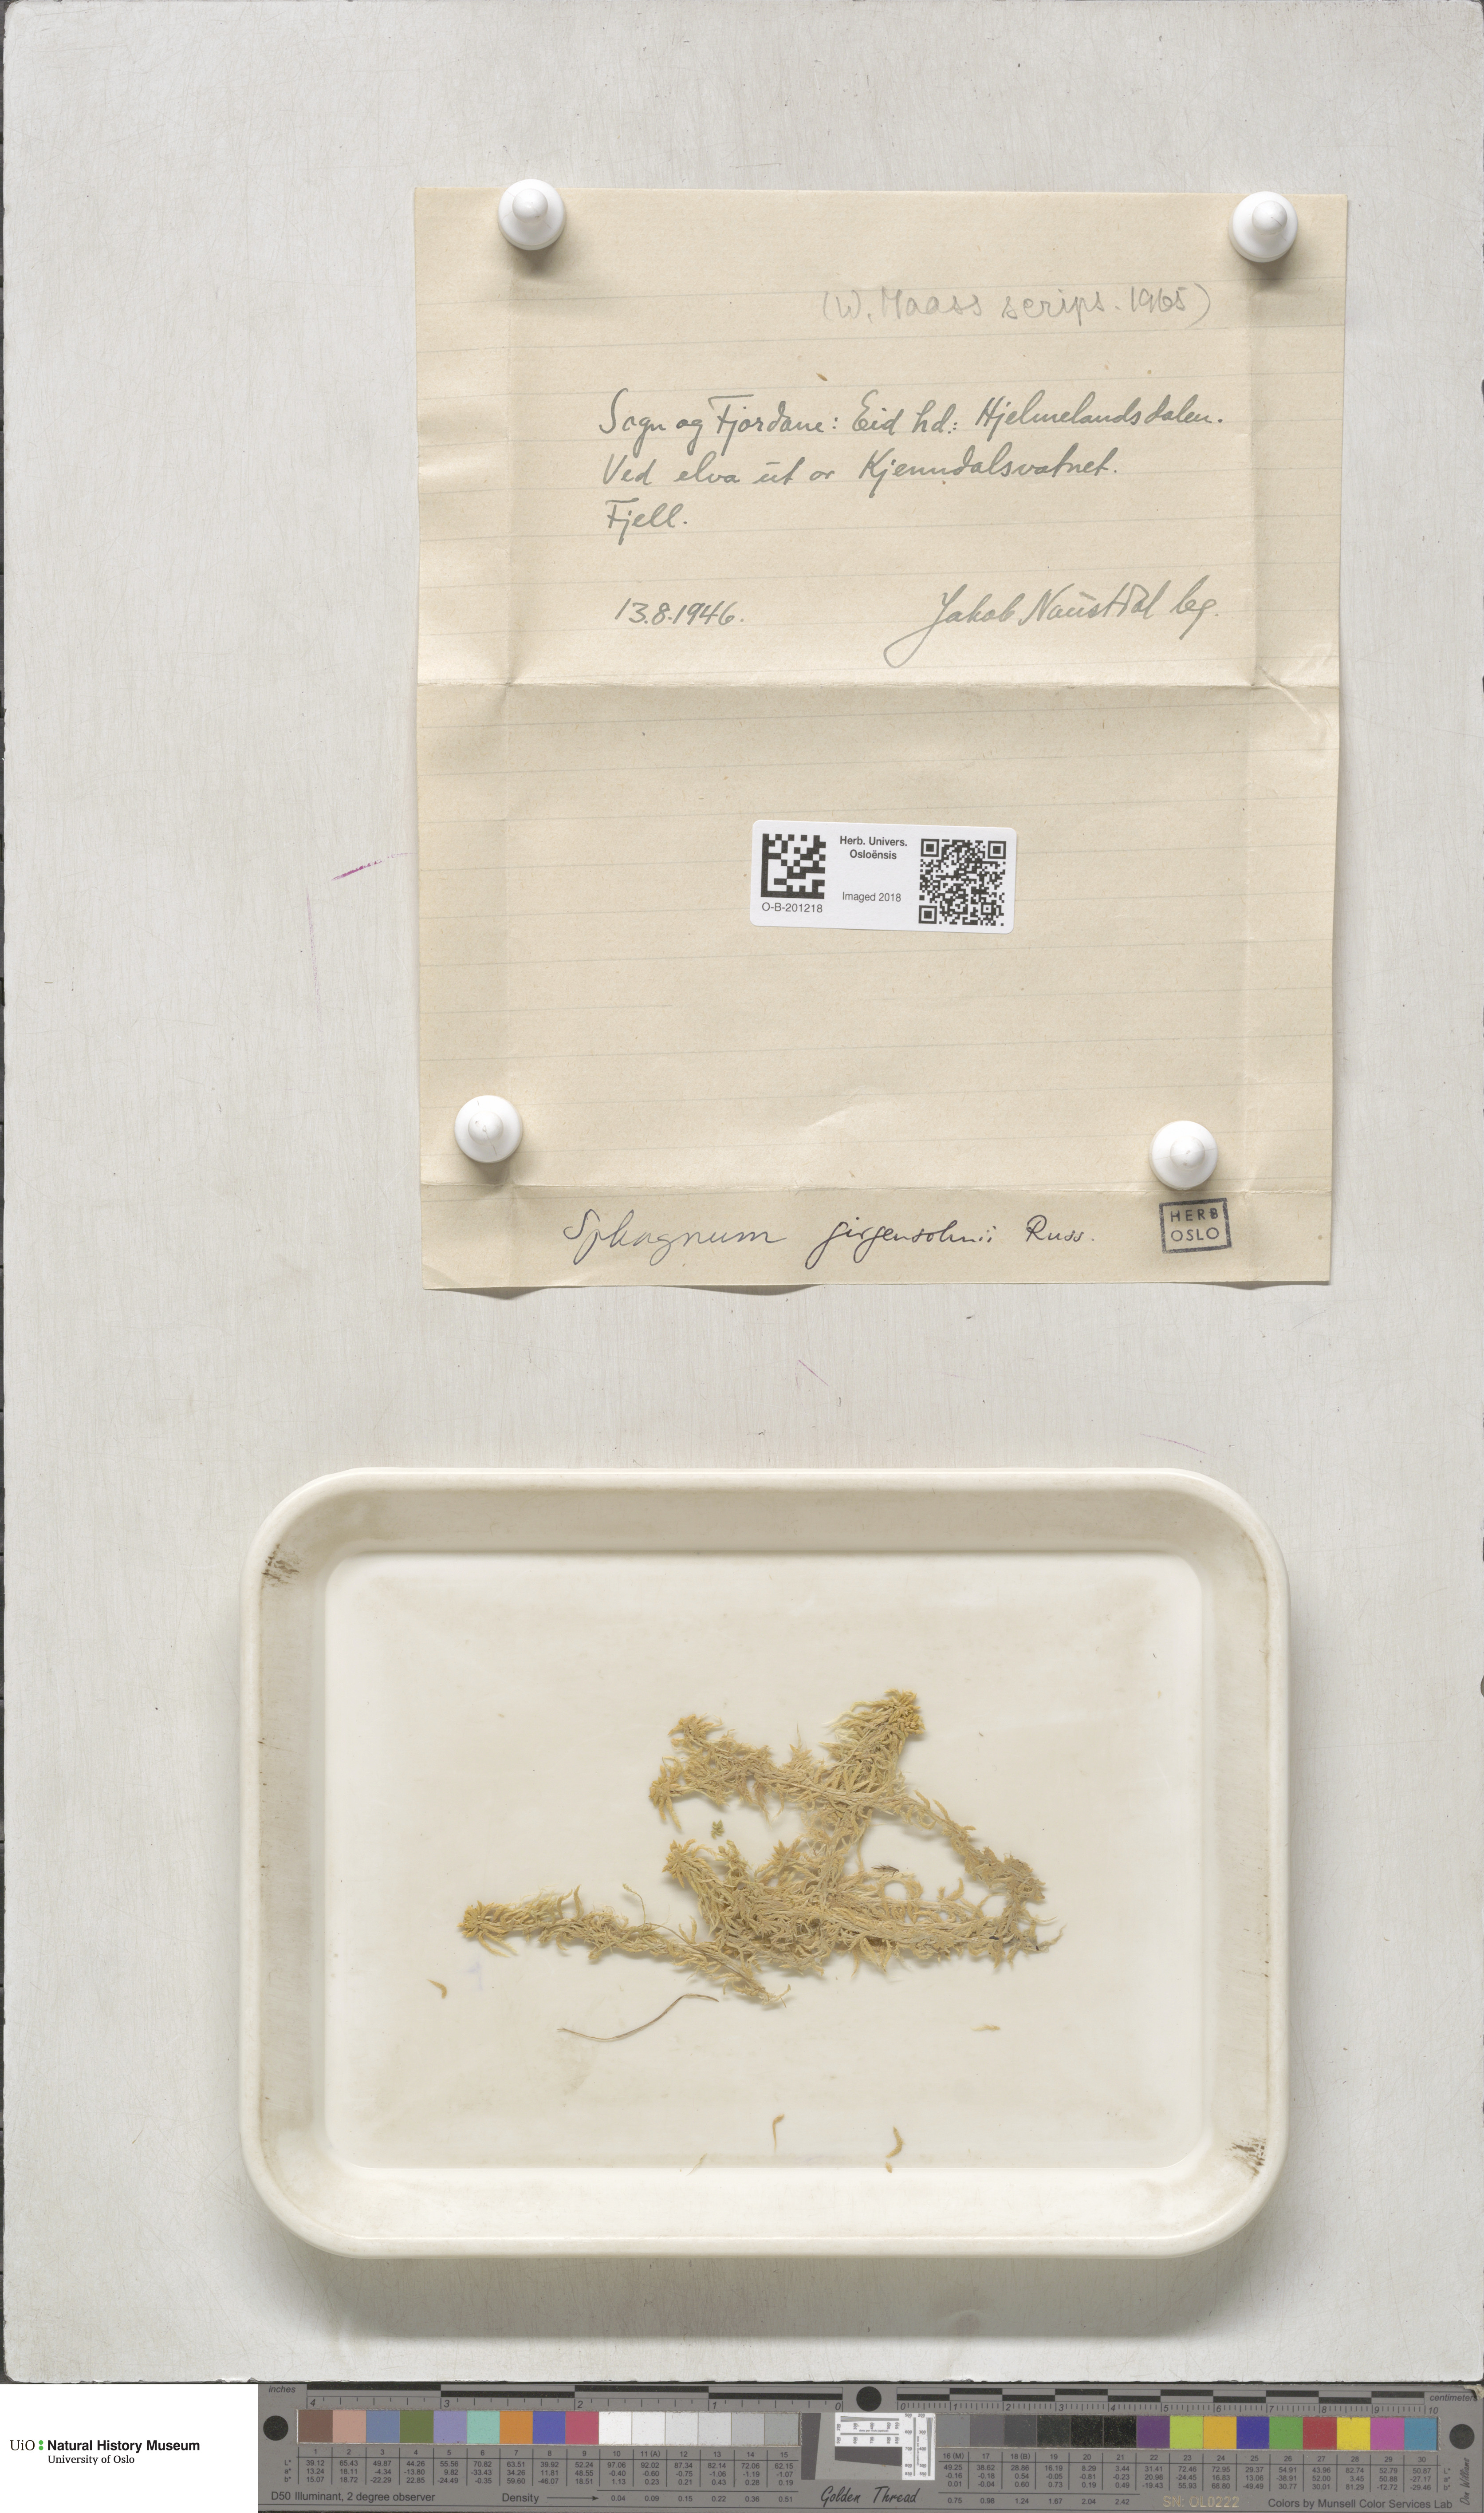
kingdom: Plantae
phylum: Bryophyta
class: Sphagnopsida
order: Sphagnales
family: Sphagnaceae
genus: Sphagnum
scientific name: Sphagnum girgensohnii
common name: Girgensohn's peat moss
